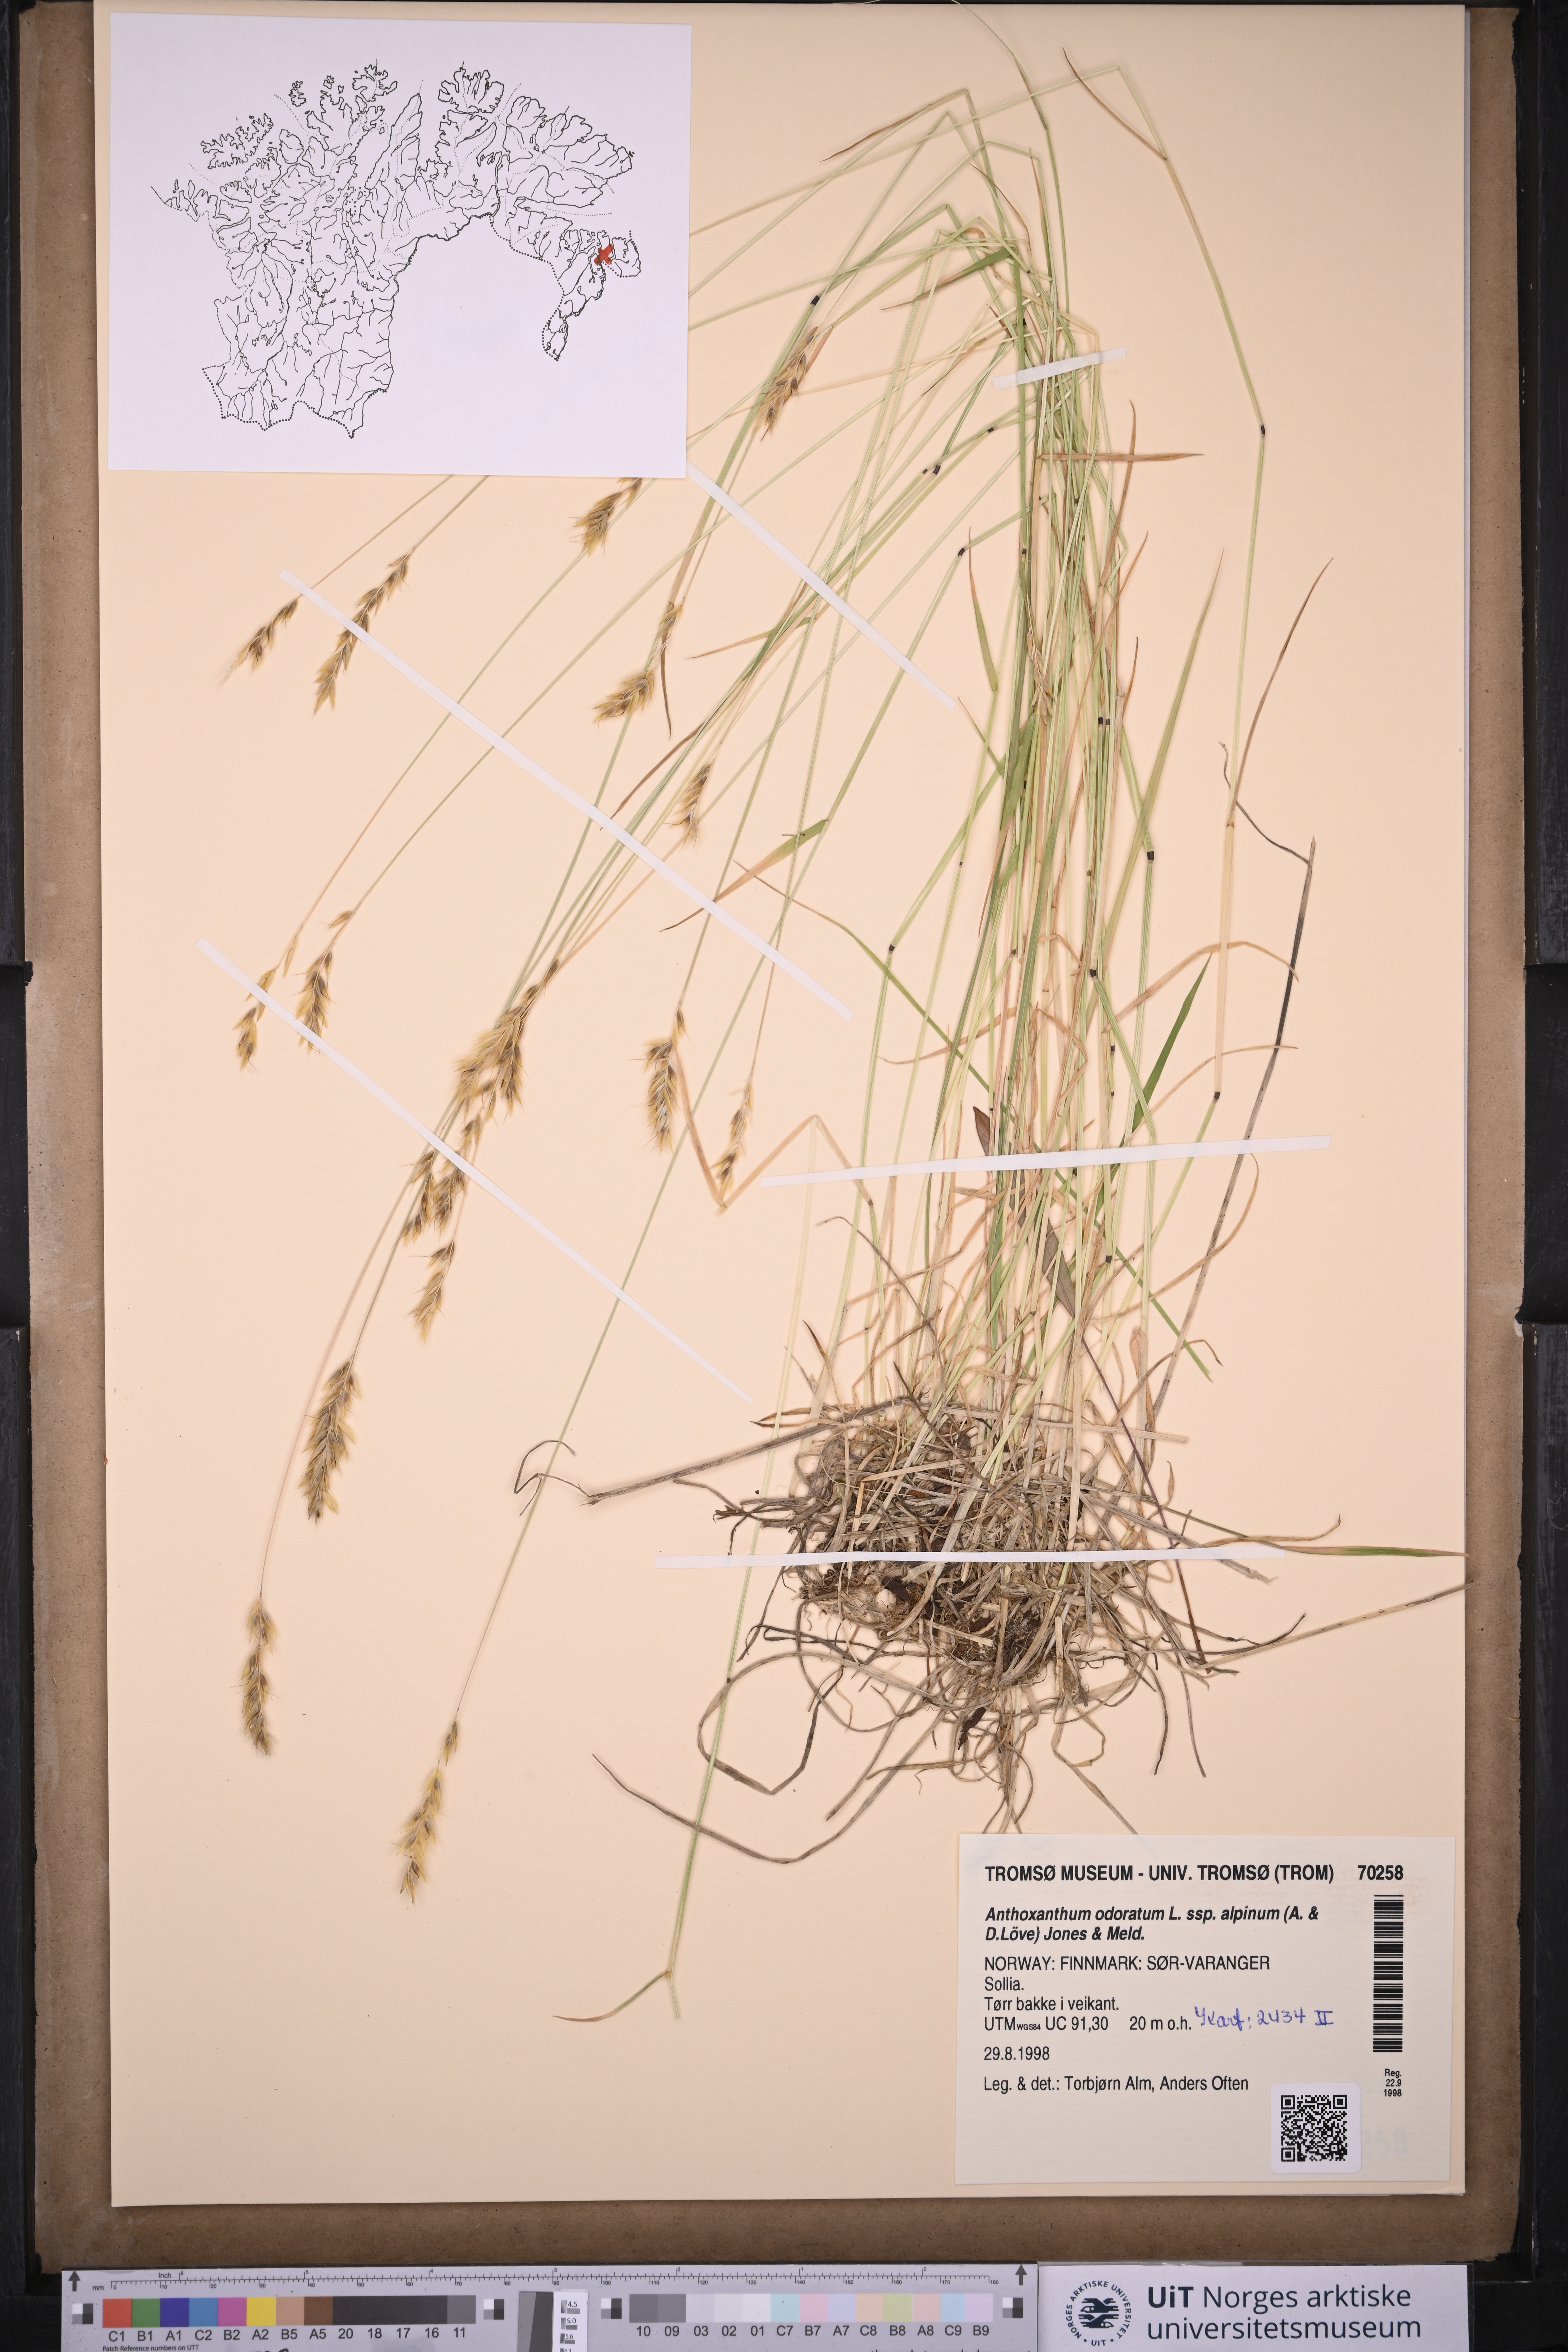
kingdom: Plantae
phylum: Tracheophyta
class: Liliopsida
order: Poales
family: Poaceae
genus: Anthoxanthum
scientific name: Anthoxanthum nipponicum
